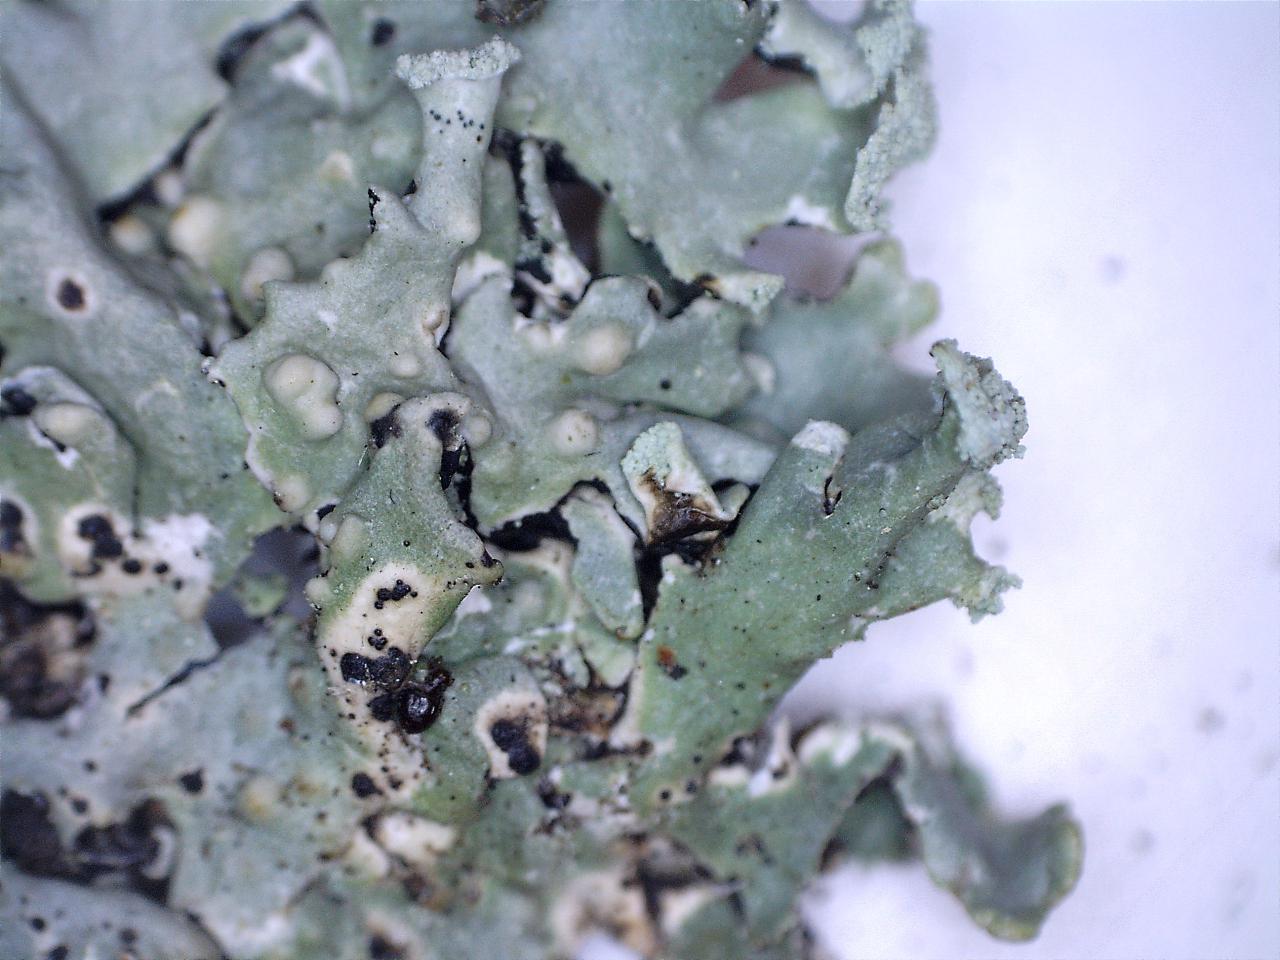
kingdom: Fungi
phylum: Basidiomycota
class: Tremellomycetes
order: Tremellales
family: Tremellaceae
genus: Tremella
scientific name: Tremella hypogymniae
